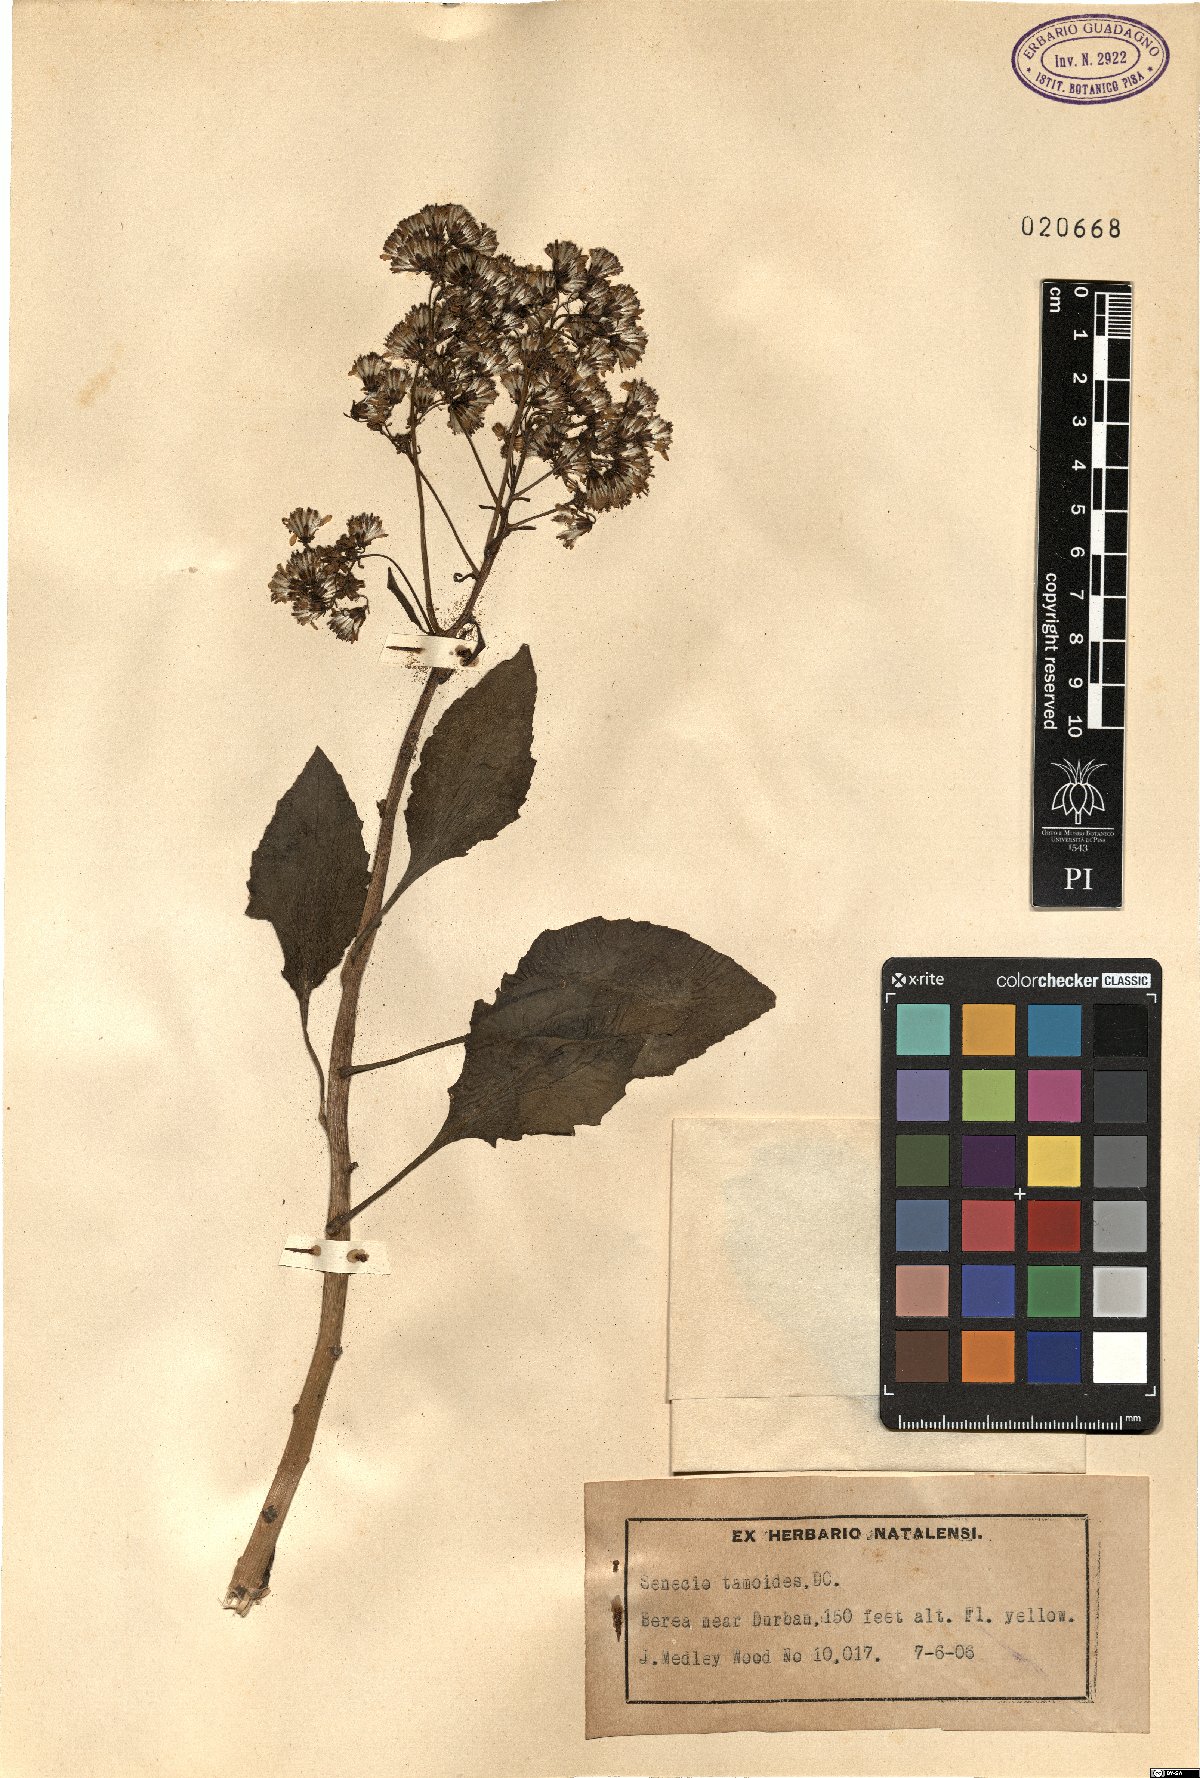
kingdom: Plantae
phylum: Tracheophyta
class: Magnoliopsida
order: Asterales
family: Asteraceae
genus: Senecio
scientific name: Senecio tamoides
